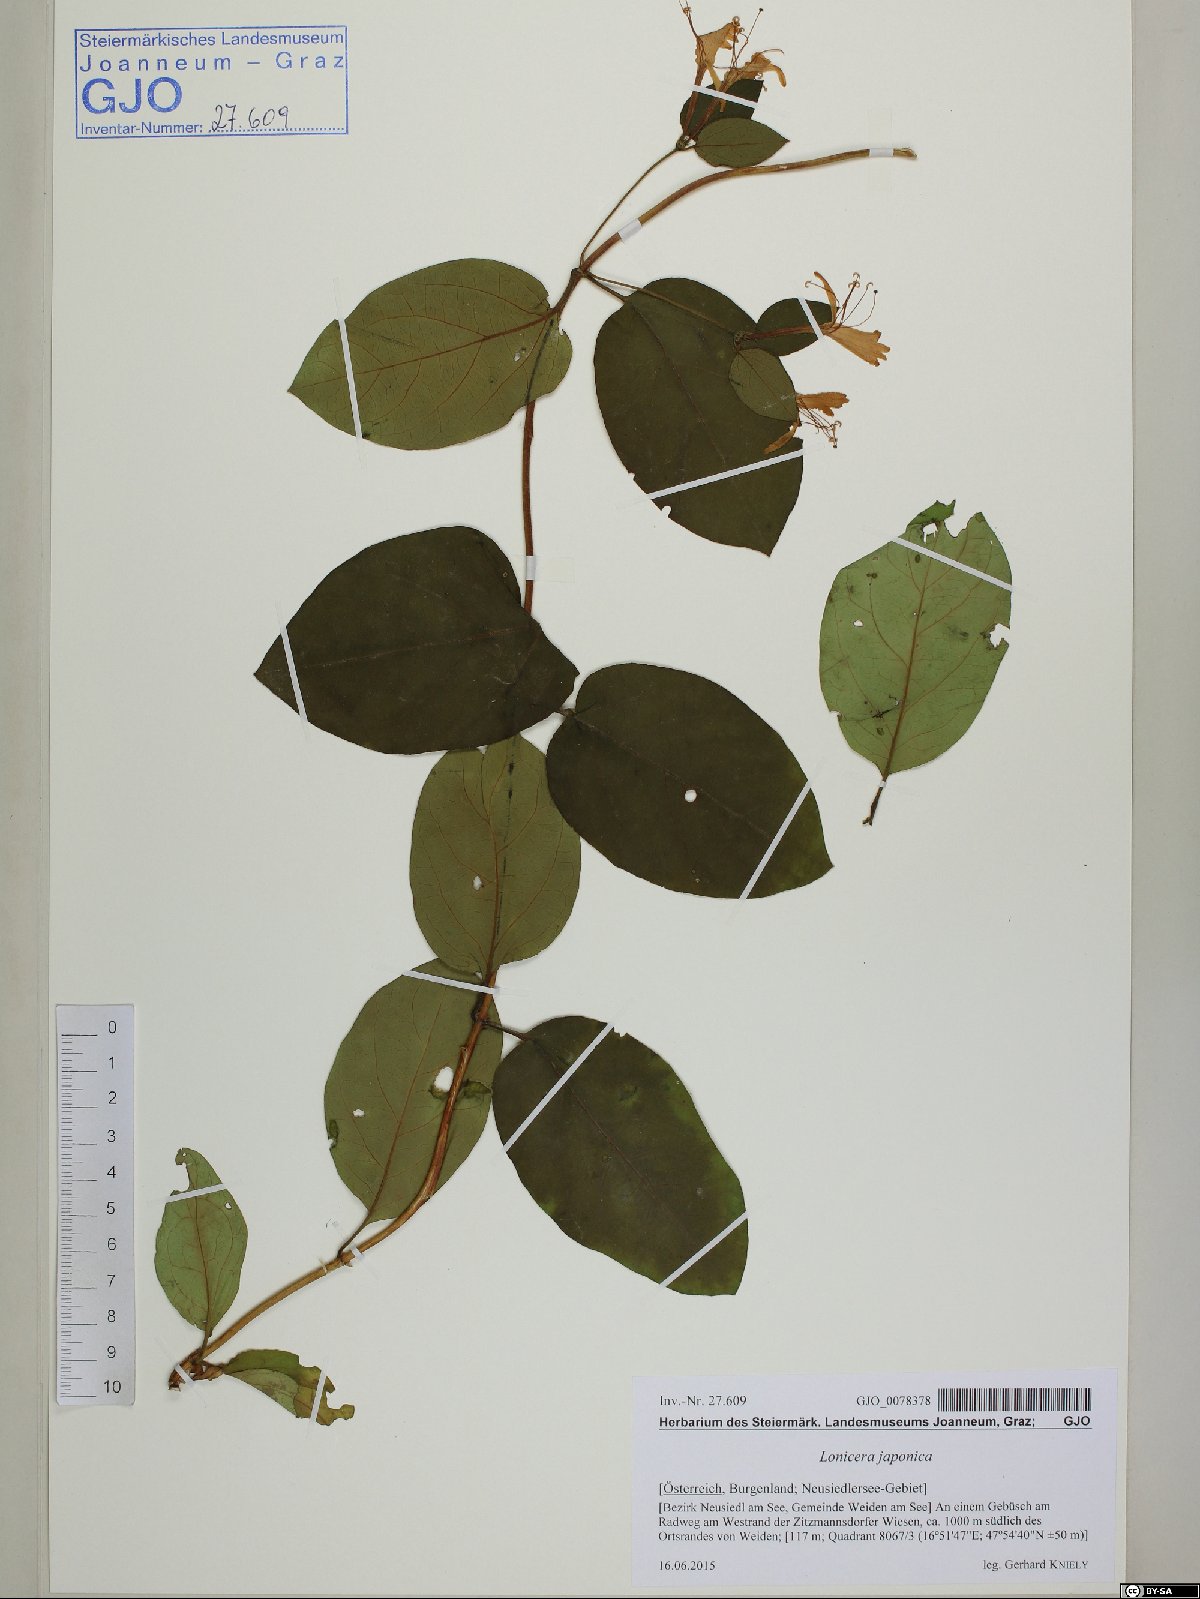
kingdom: Plantae
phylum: Tracheophyta
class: Magnoliopsida
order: Dipsacales
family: Caprifoliaceae
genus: Lonicera
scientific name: Lonicera japonica
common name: Japanese honeysuckle
